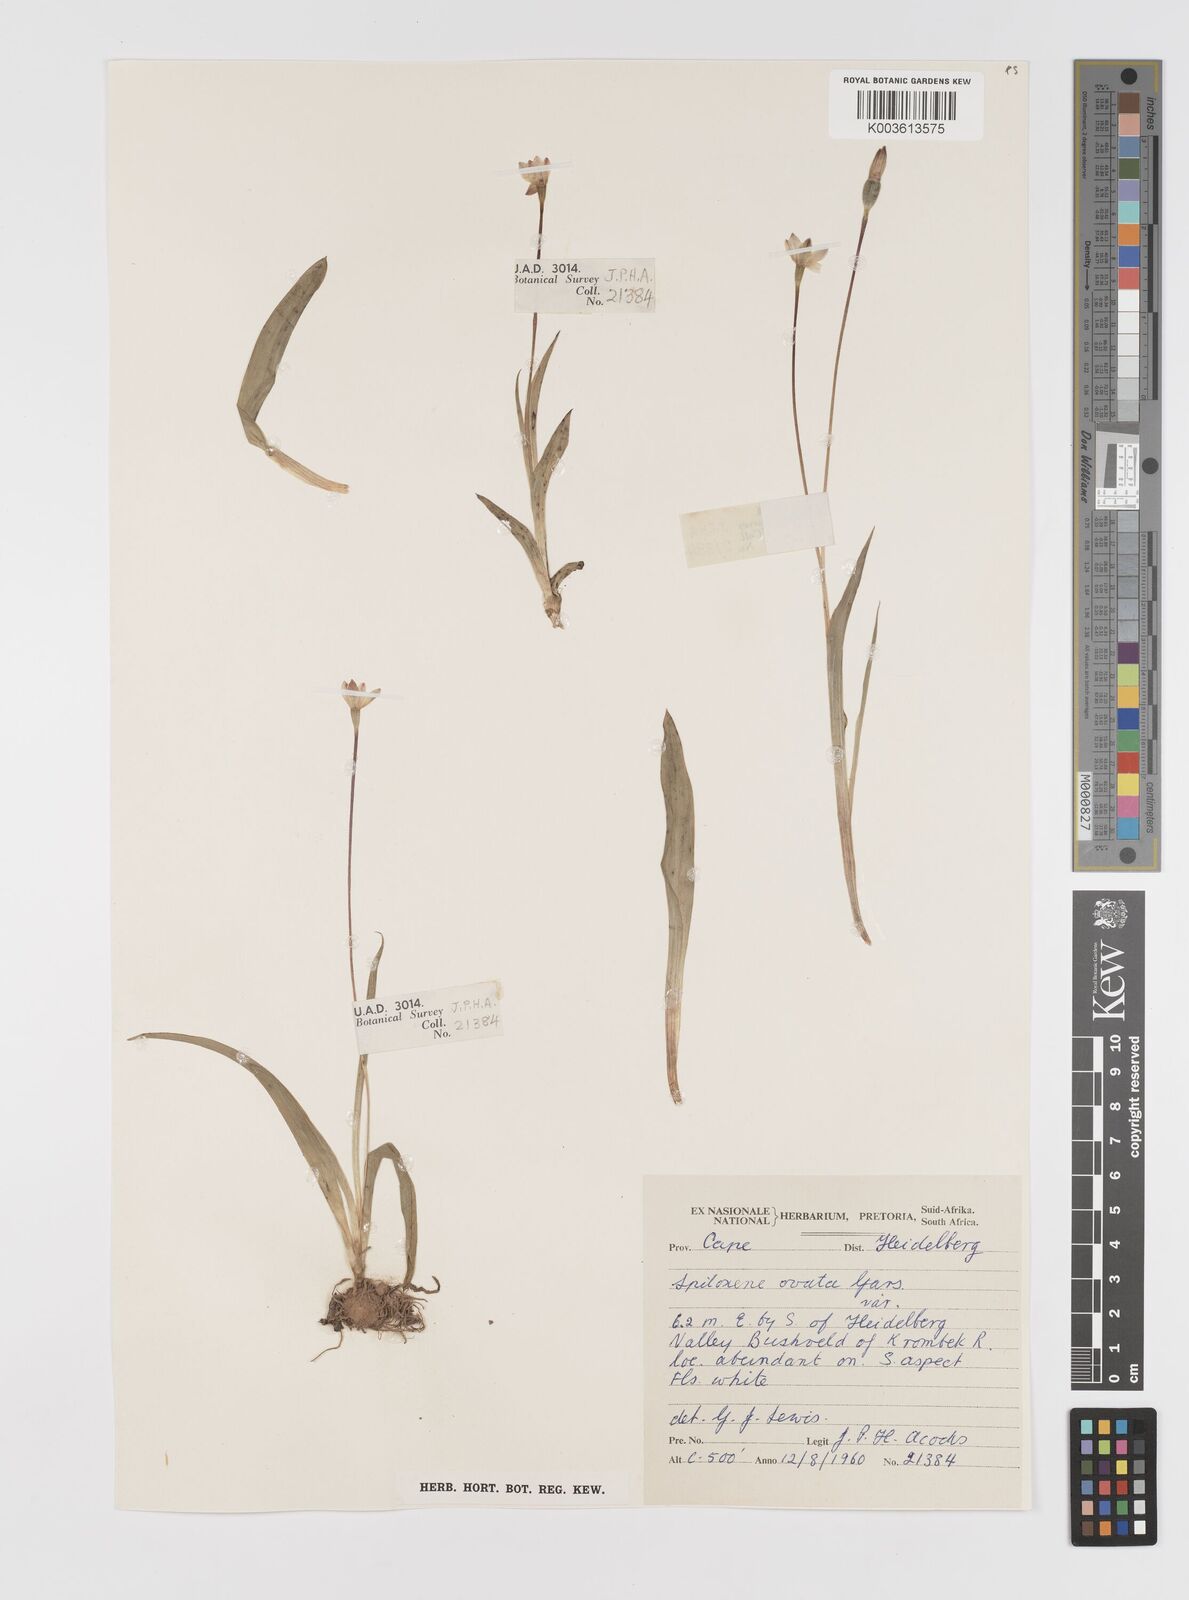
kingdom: Plantae
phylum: Tracheophyta
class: Liliopsida
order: Asparagales
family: Hypoxidaceae
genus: Pauridia
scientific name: Pauridia ovata
